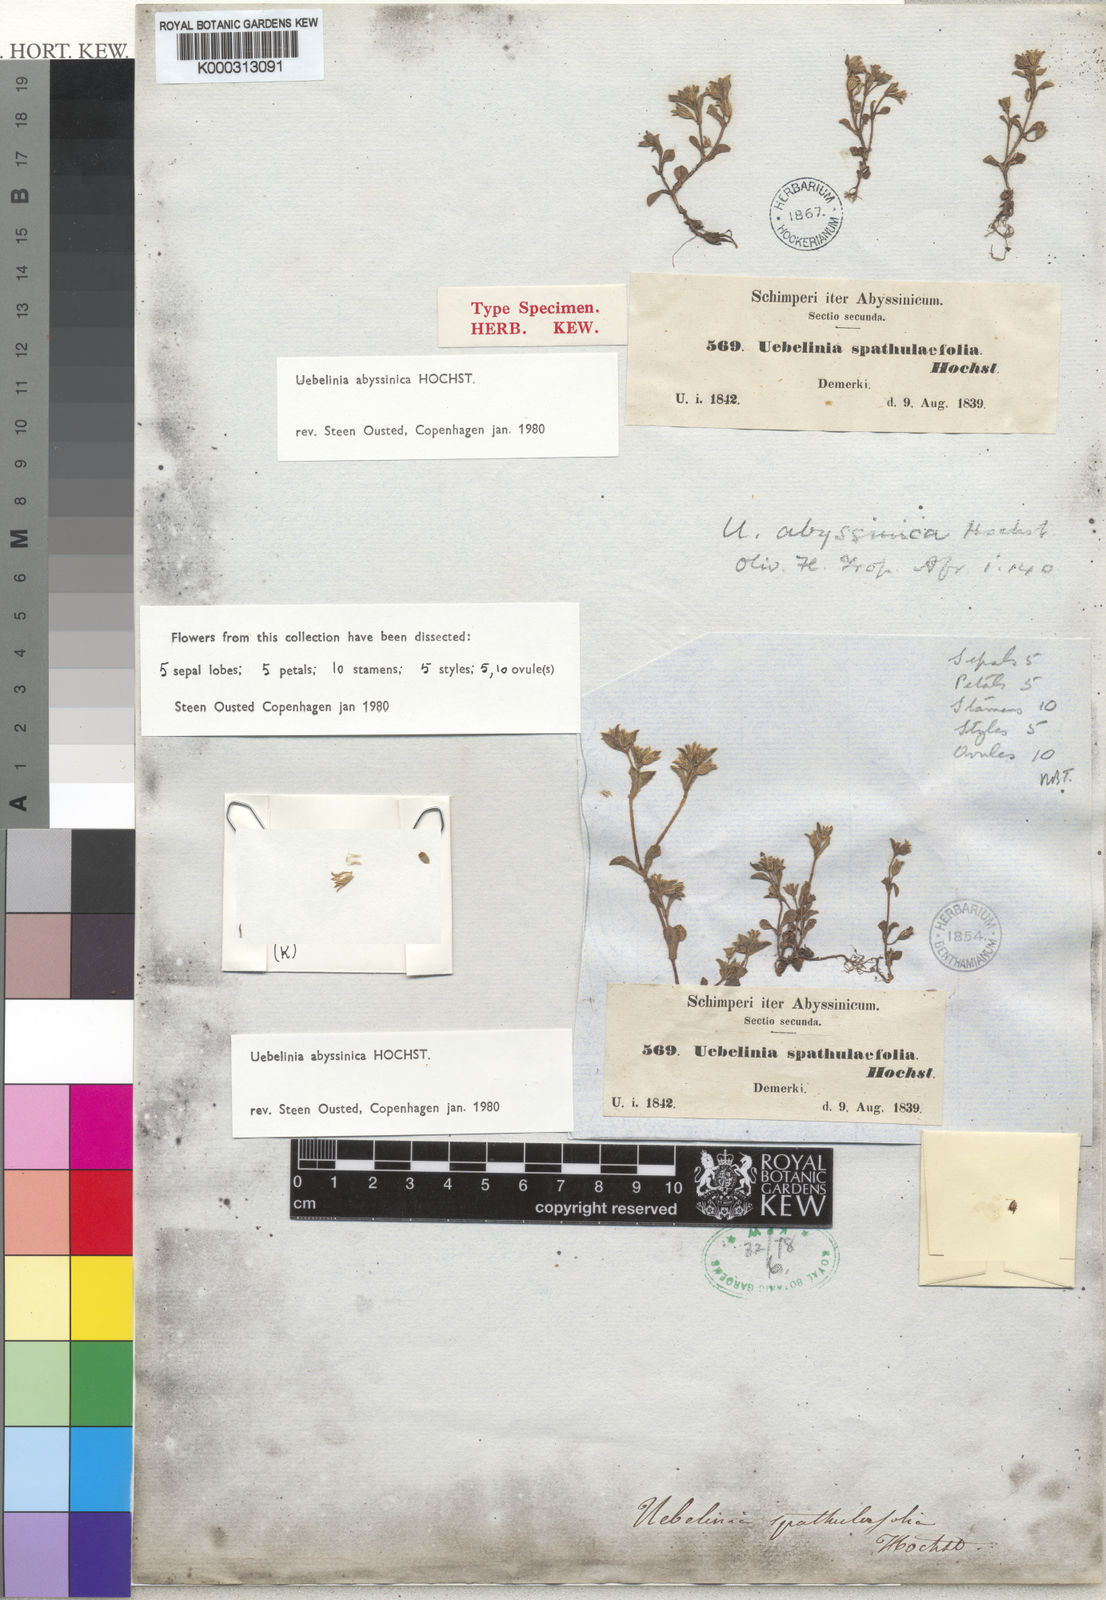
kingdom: Plantae
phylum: Tracheophyta
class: Magnoliopsida
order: Caryophyllales
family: Caryophyllaceae
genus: Silene
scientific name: Silene abyssinica
